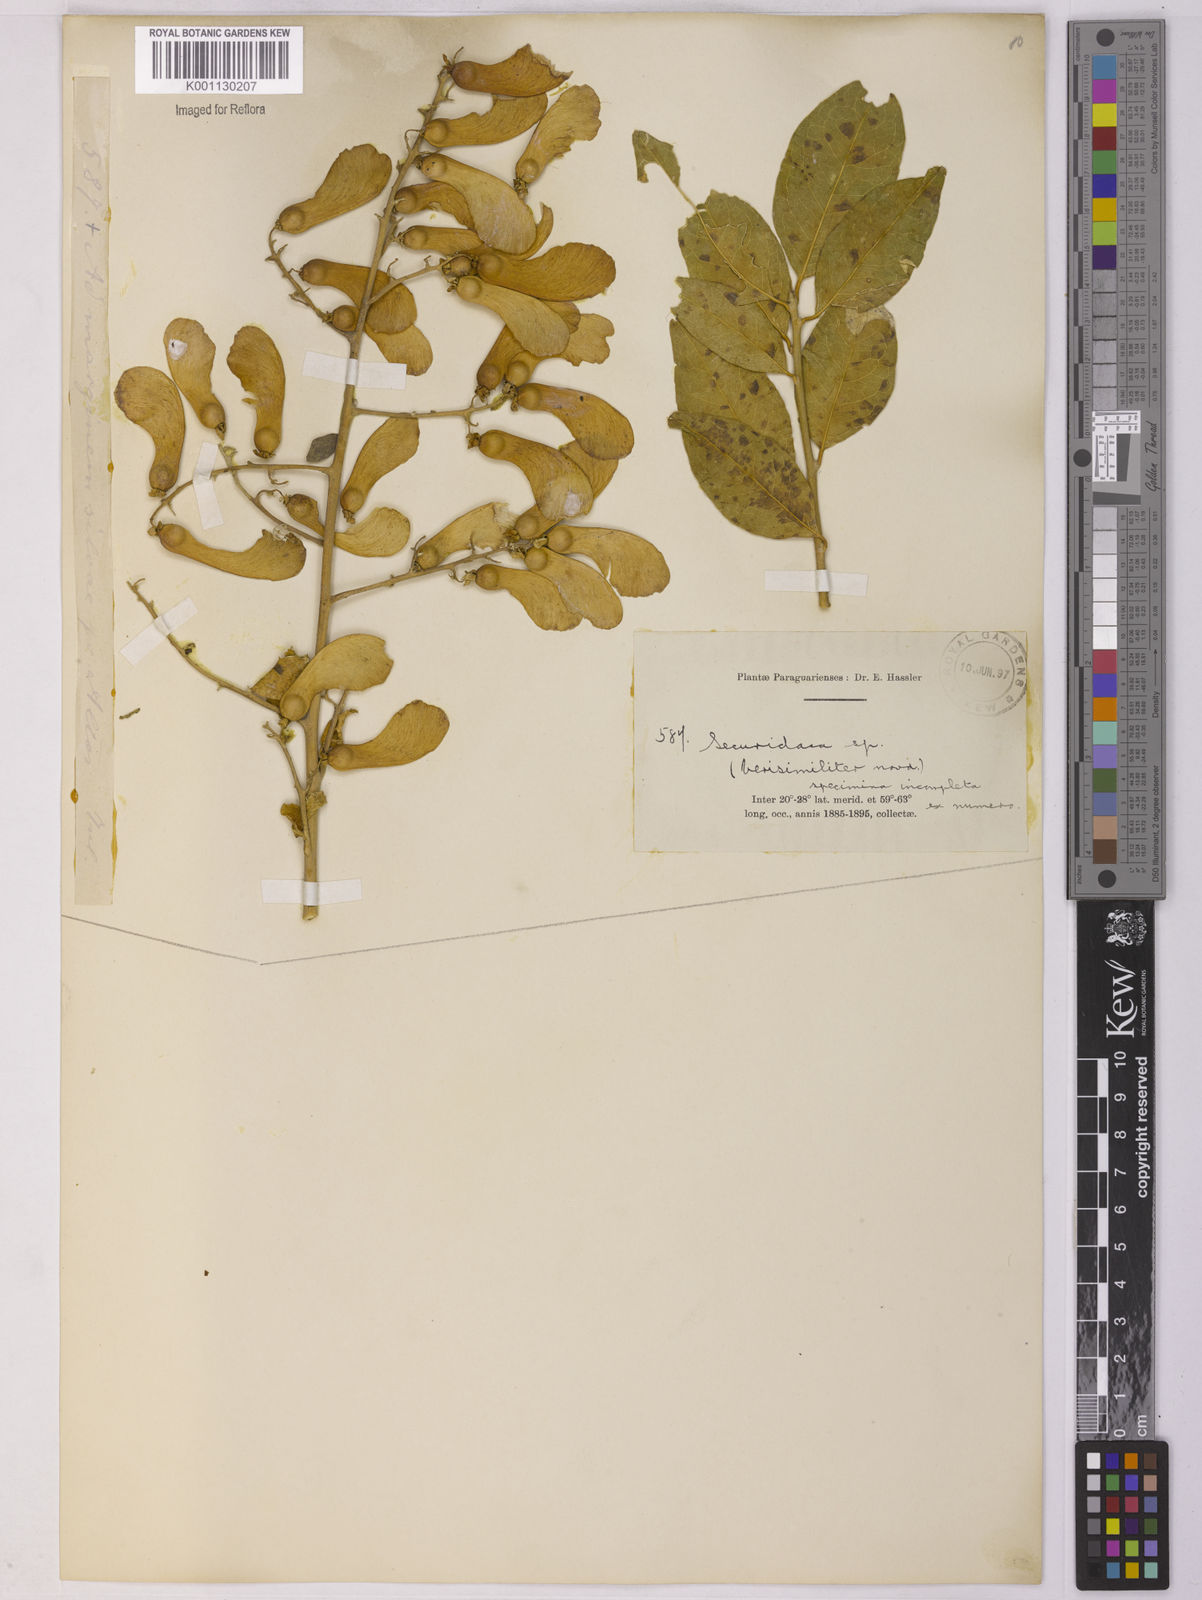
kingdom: Plantae
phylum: Tracheophyta
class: Magnoliopsida
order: Fabales
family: Polygalaceae
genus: Securidaca
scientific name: Securidaca
